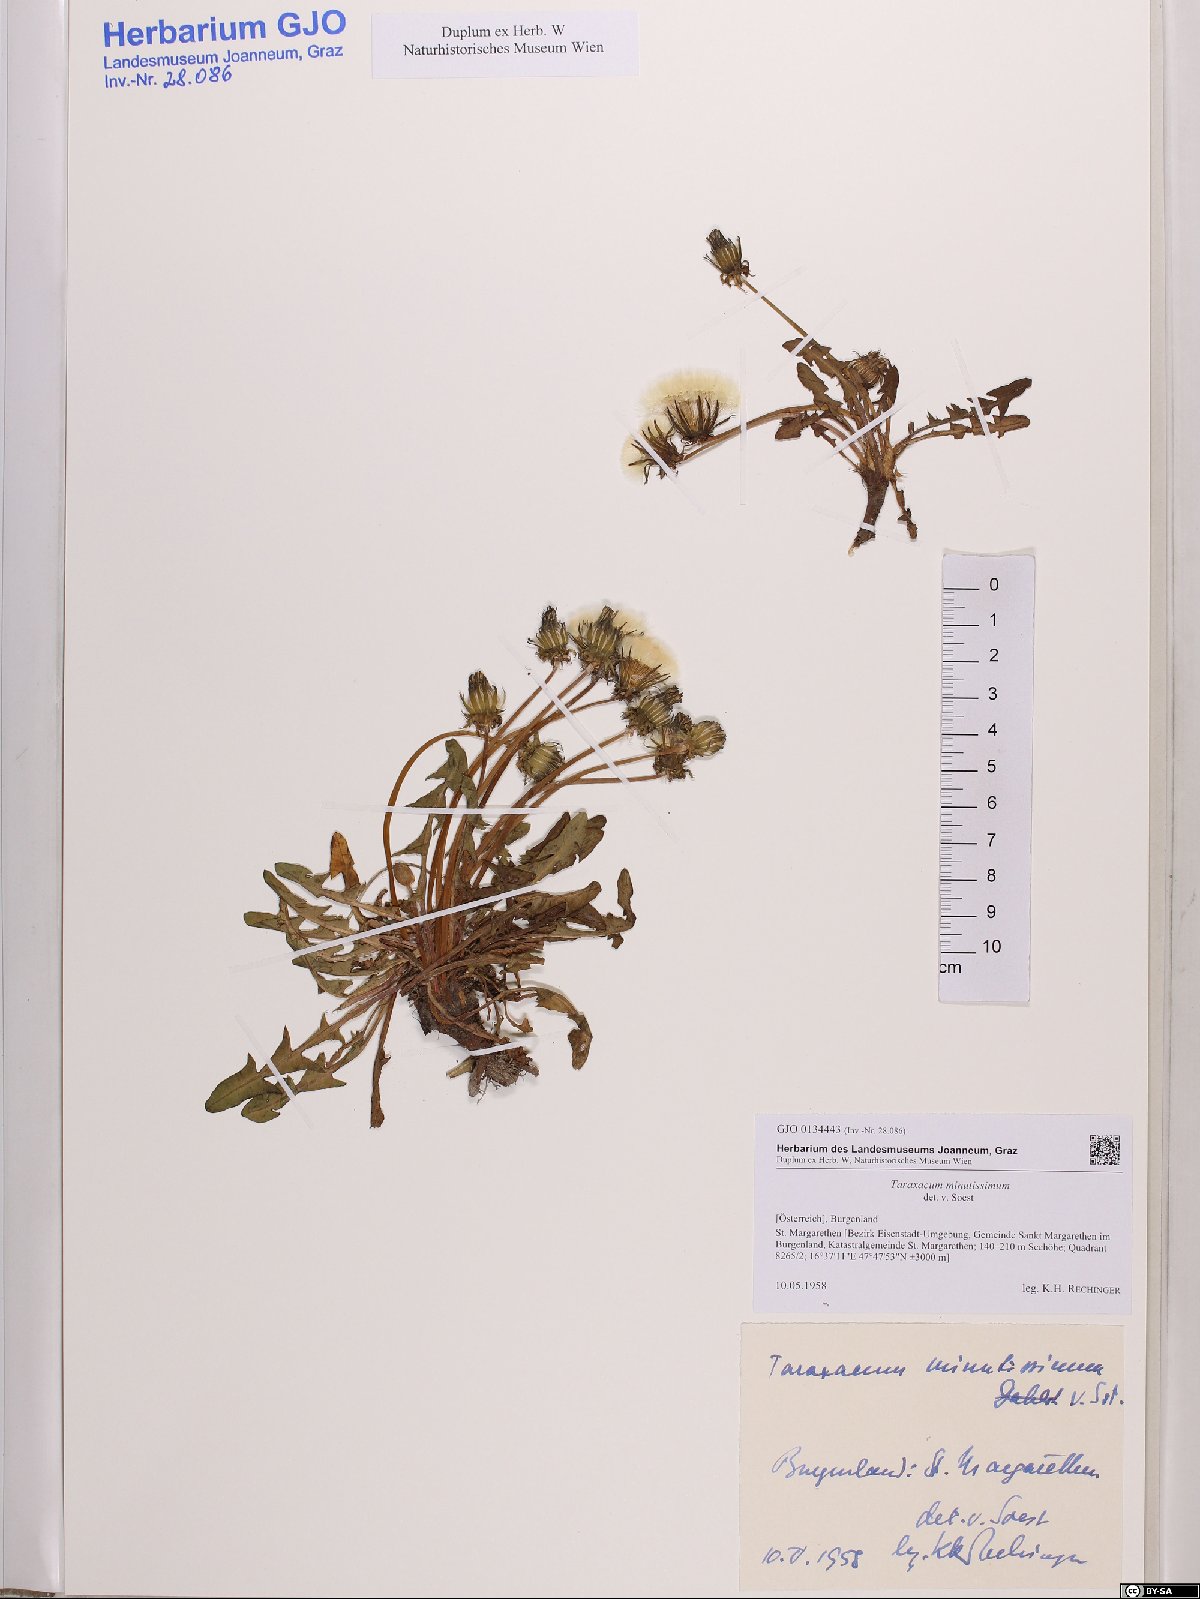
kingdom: Plantae
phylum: Tracheophyta
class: Magnoliopsida
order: Asterales
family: Asteraceae
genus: Taraxacum
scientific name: Taraxacum minutissimum
